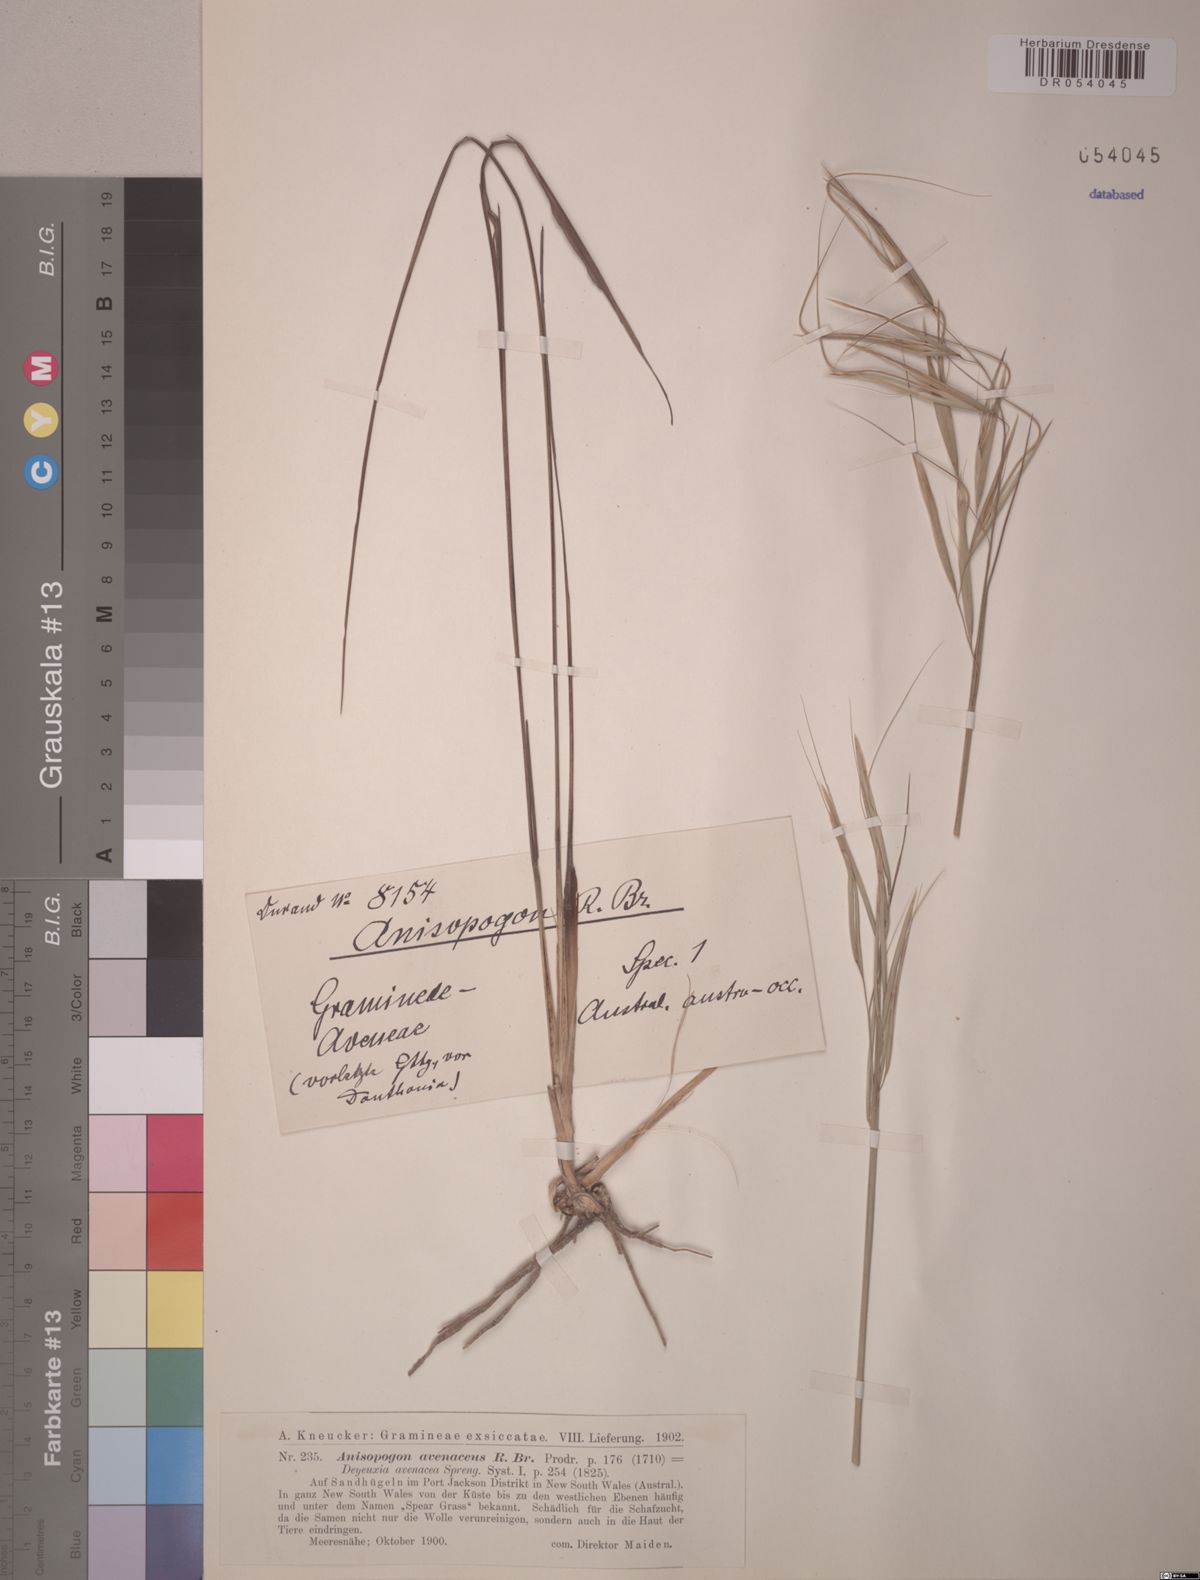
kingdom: Plantae
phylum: Tracheophyta
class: Liliopsida
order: Poales
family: Poaceae
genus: Anisopogon
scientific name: Anisopogon avenaceus
